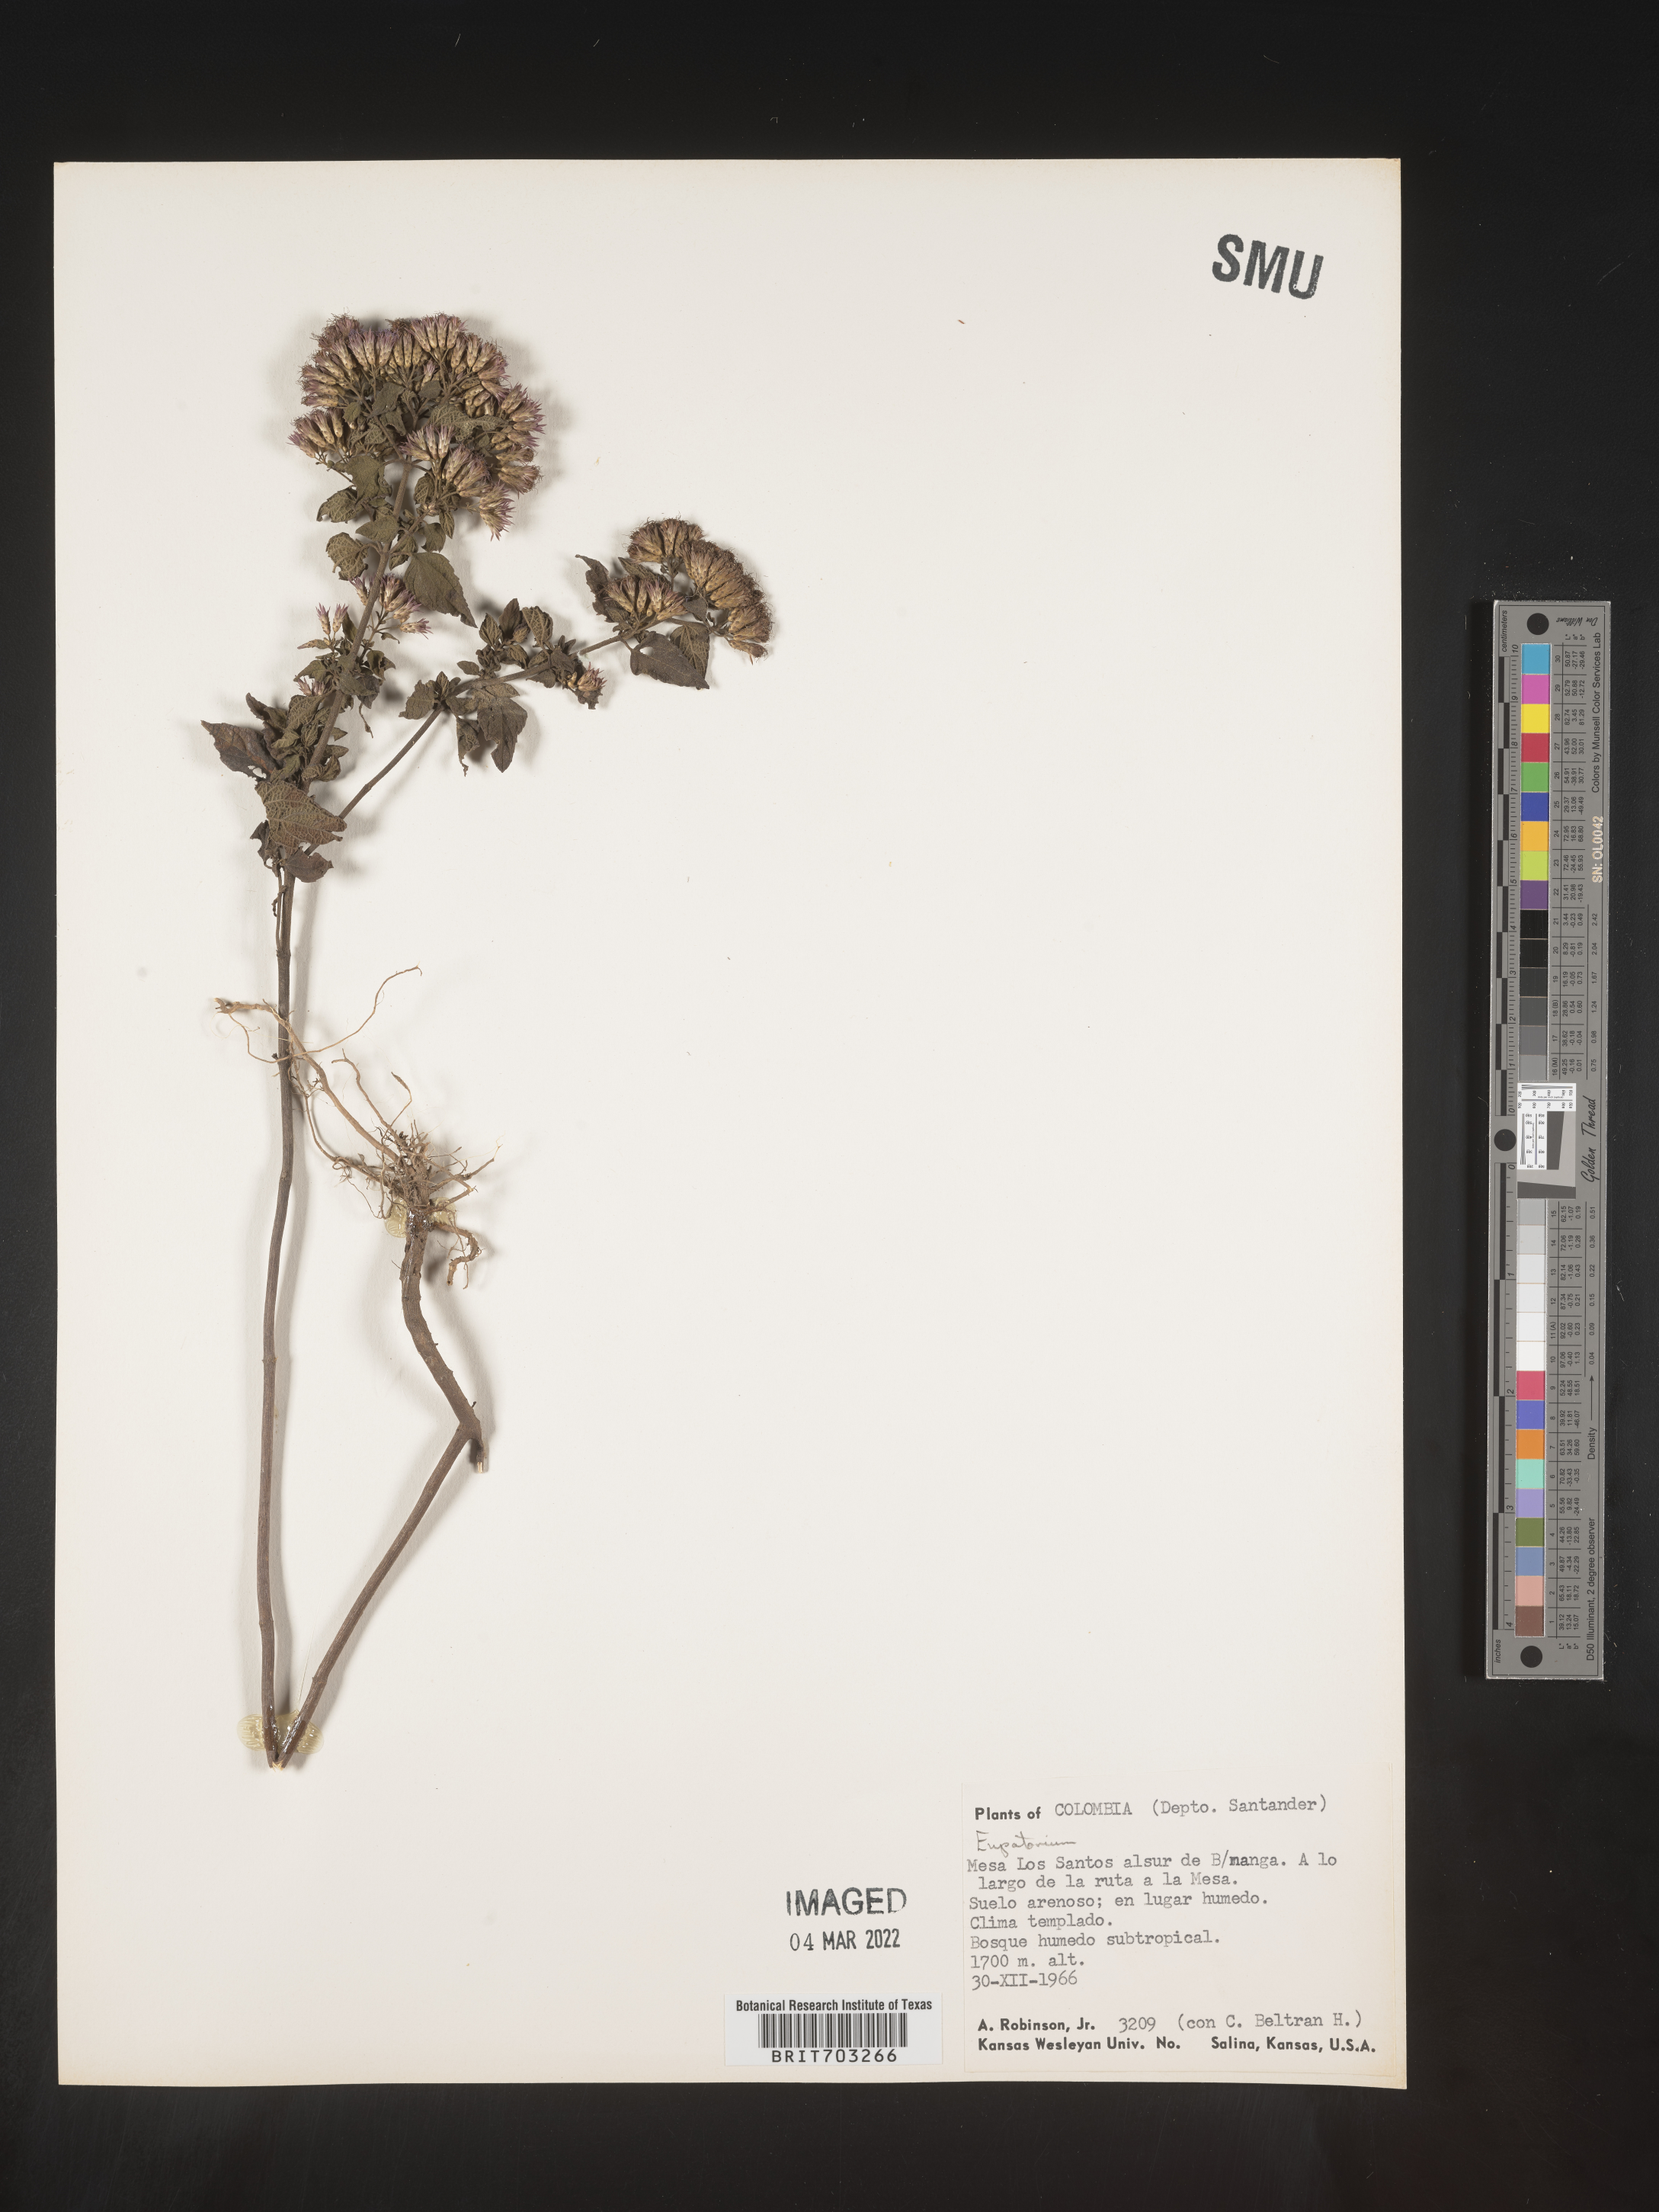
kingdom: Plantae
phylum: Tracheophyta
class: Magnoliopsida
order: Asterales
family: Asteraceae
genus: Eupatorium
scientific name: Eupatorium
